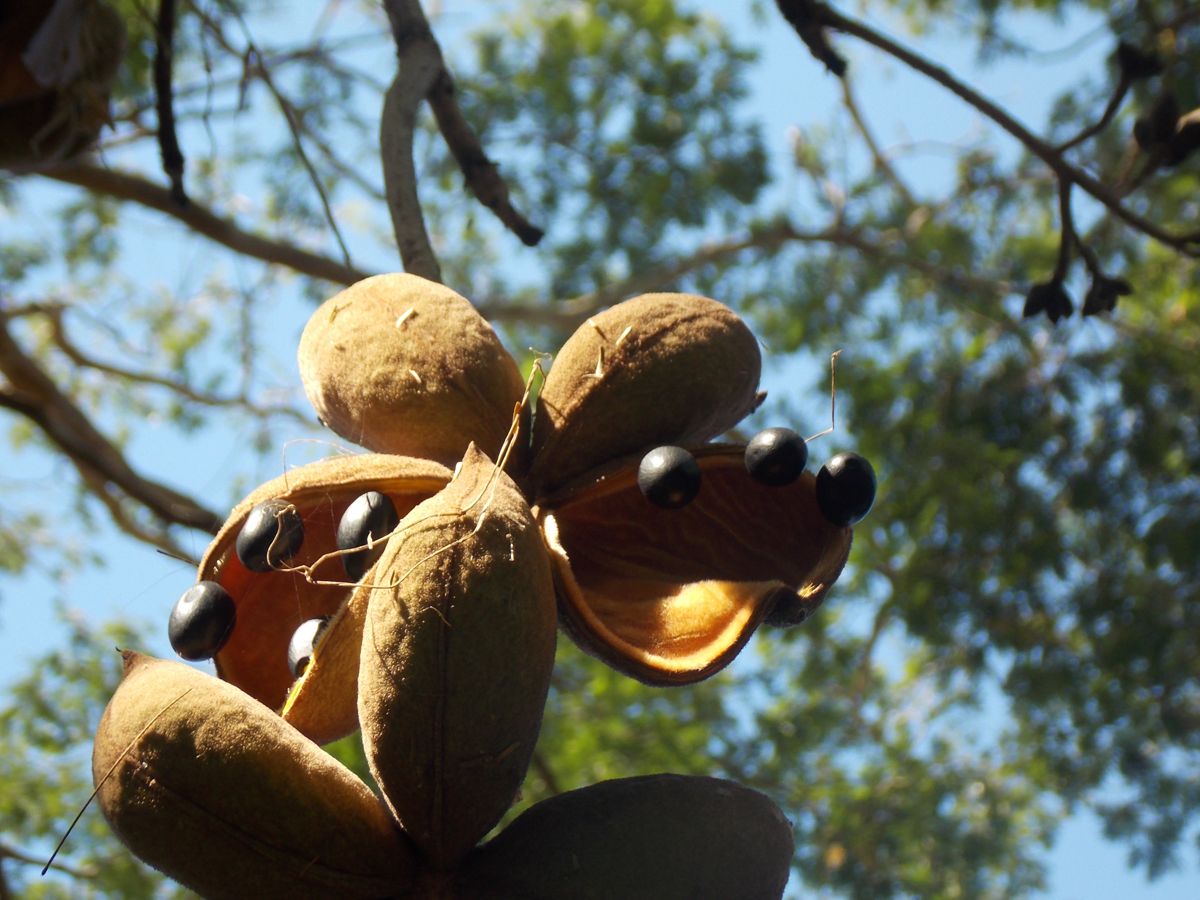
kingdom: Plantae
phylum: Tracheophyta
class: Magnoliopsida
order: Malvales
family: Malvaceae
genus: Sterculia
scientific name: Sterculia apetala
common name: Panama tree
